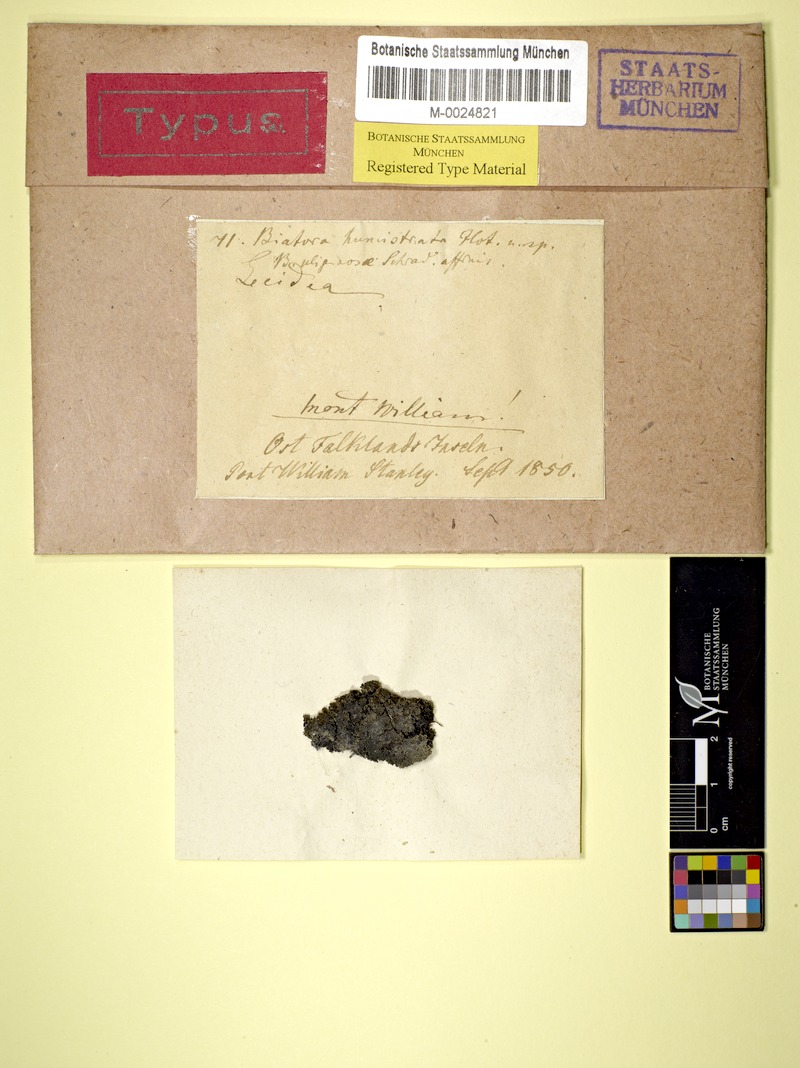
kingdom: Fungi
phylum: Ascomycota
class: Lecanoromycetes
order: Lecideales
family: Lecideaceae
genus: Lecidea
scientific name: Lecidea humistrata
